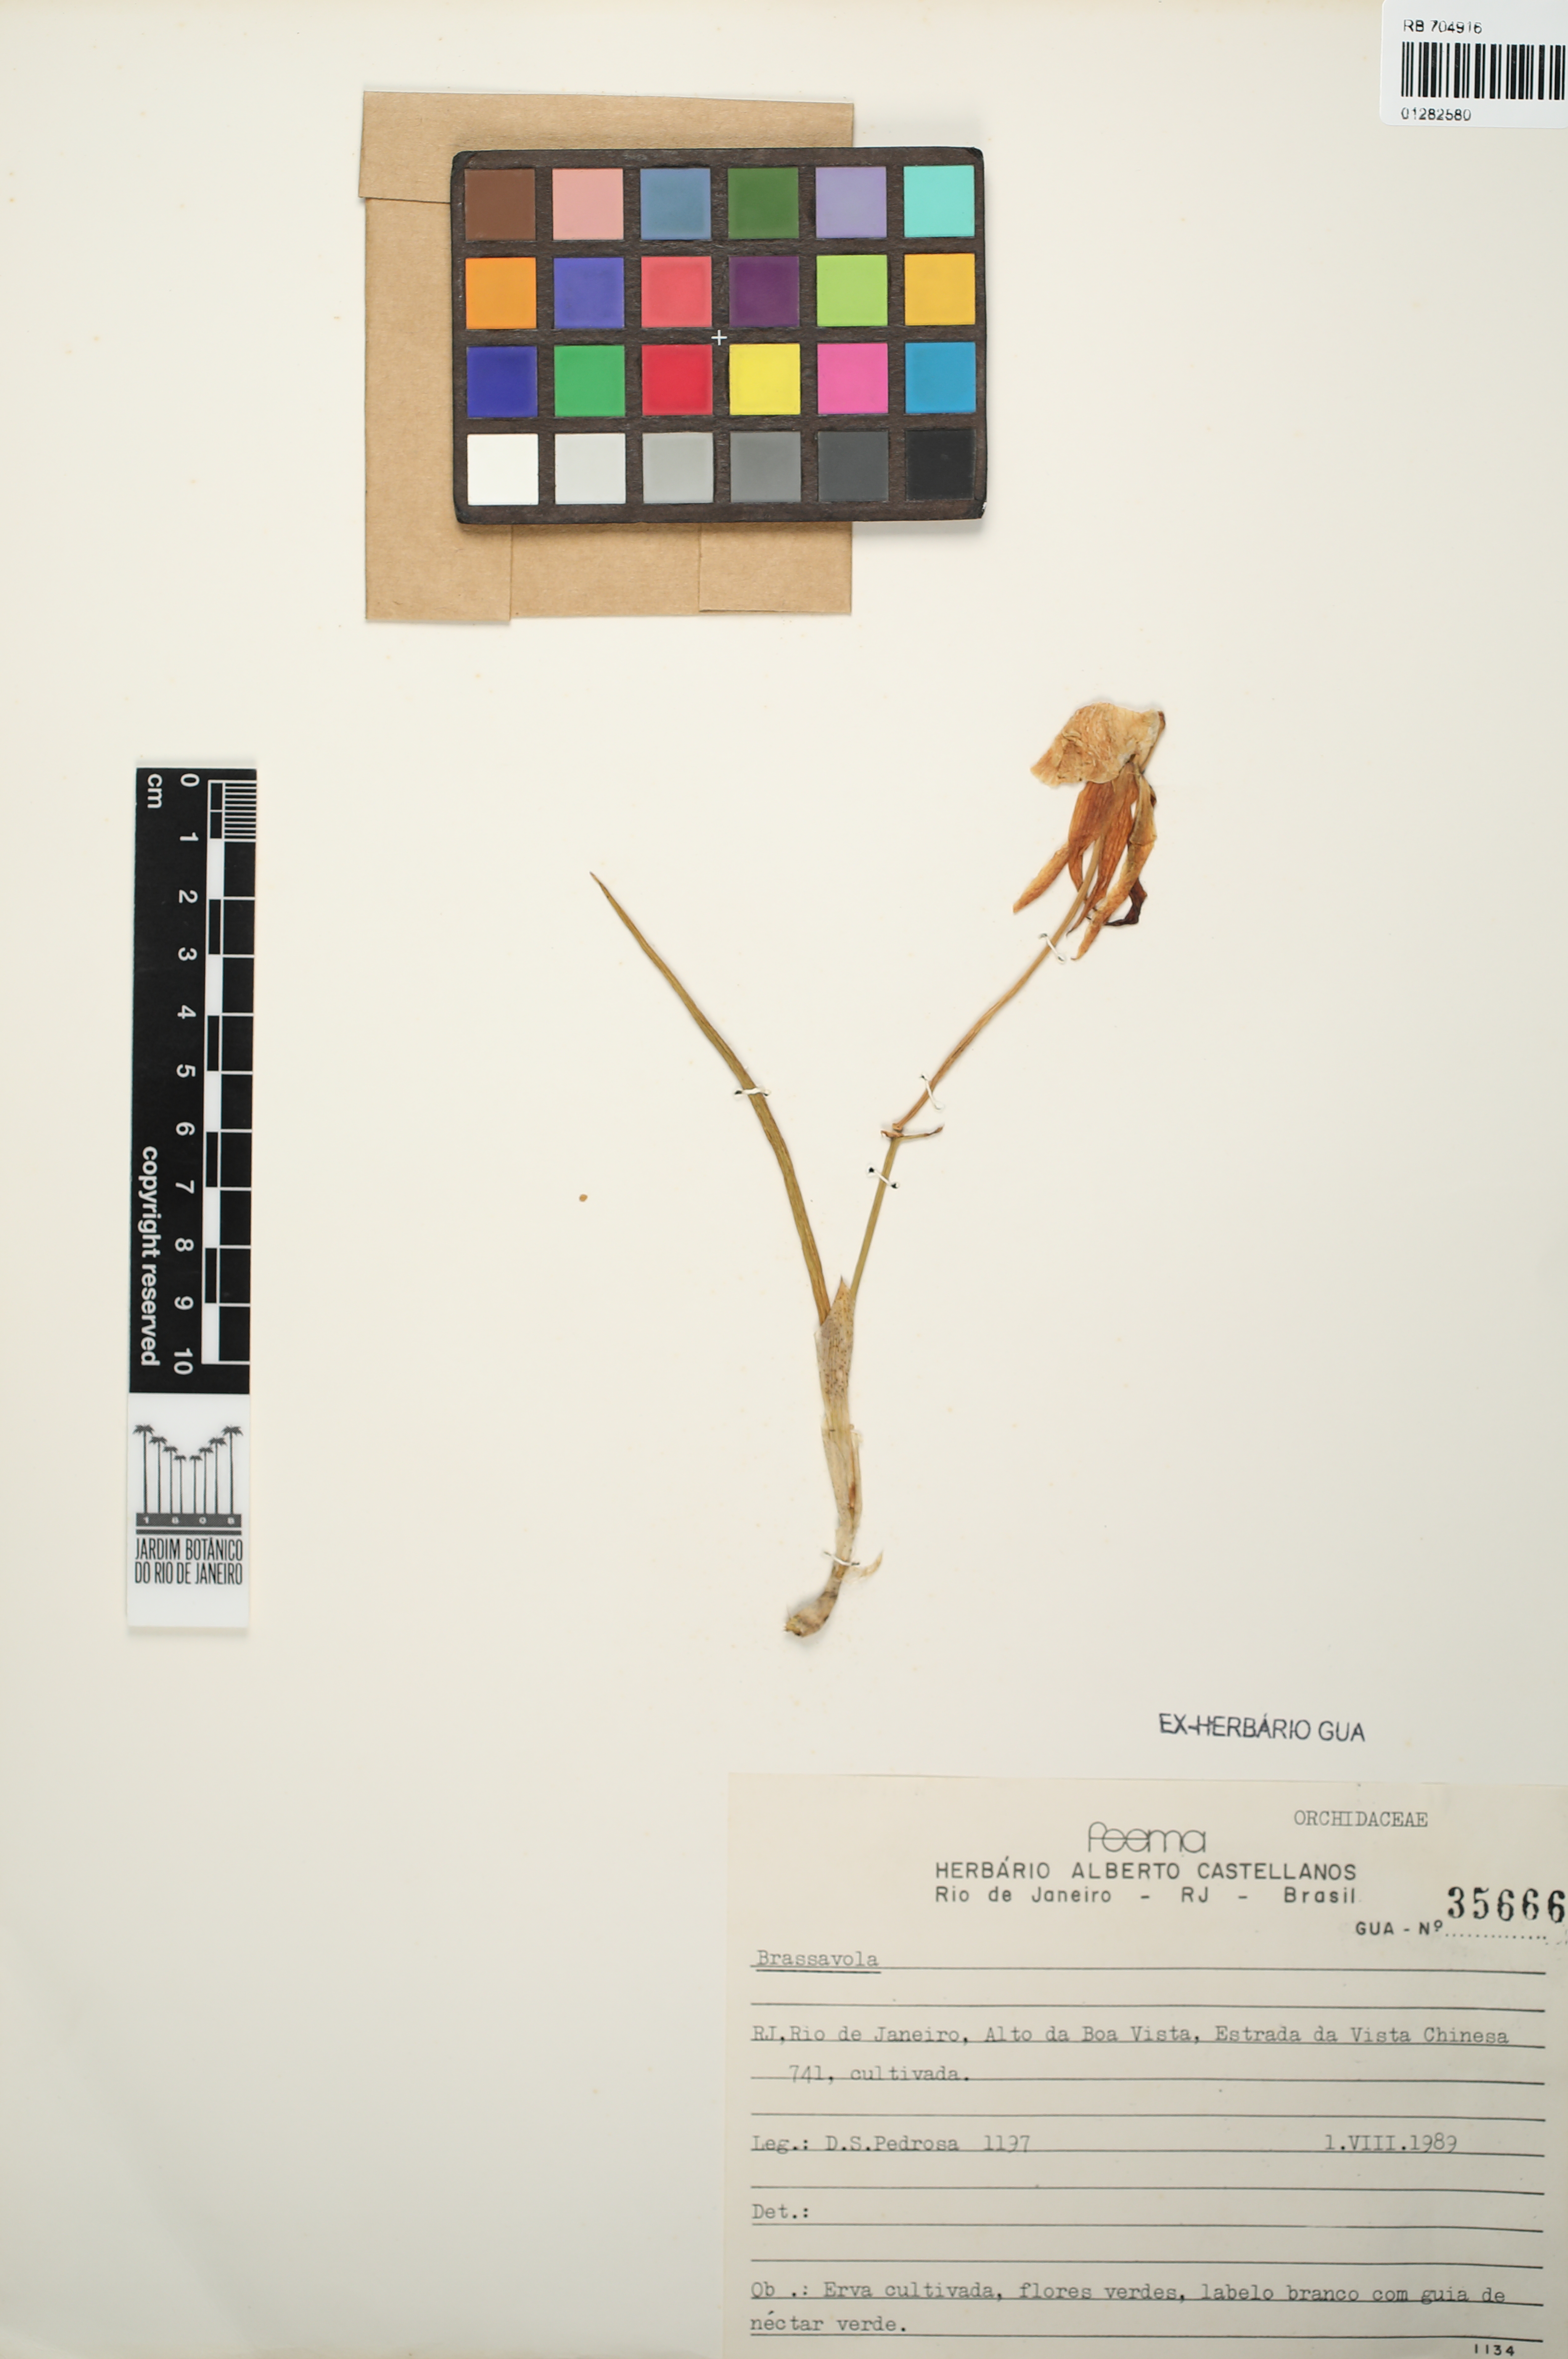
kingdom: Plantae
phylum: Tracheophyta
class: Liliopsida
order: Asparagales
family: Orchidaceae
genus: Brassavola
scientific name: Brassavola
